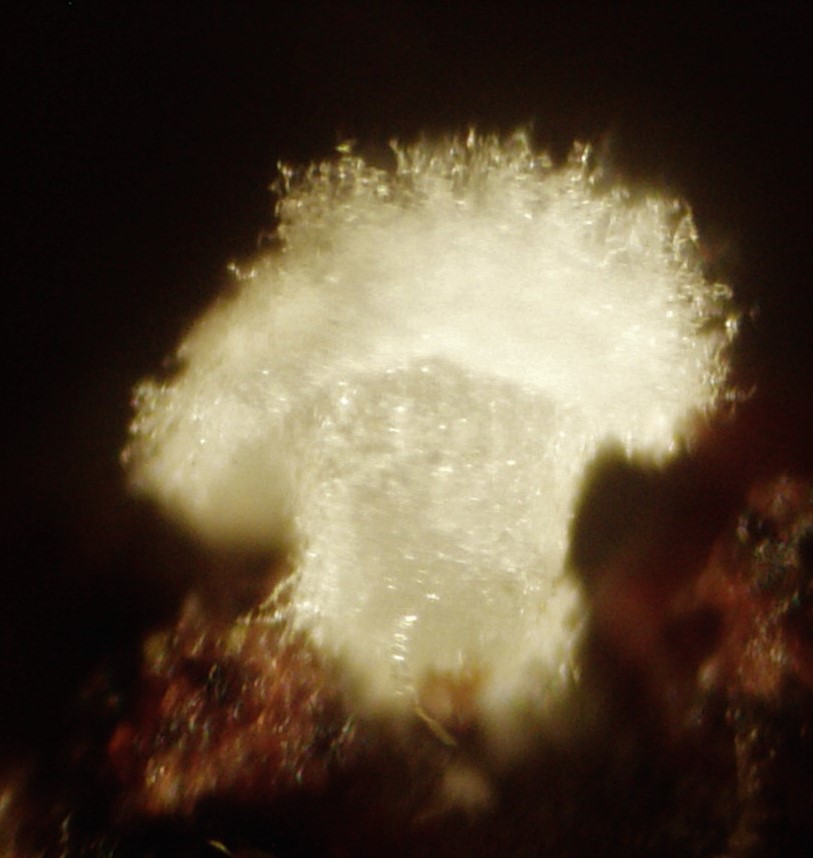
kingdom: Fungi
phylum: Basidiomycota
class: Agaricomycetes
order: Agaricales
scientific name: Agaricales
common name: champignonordenen
